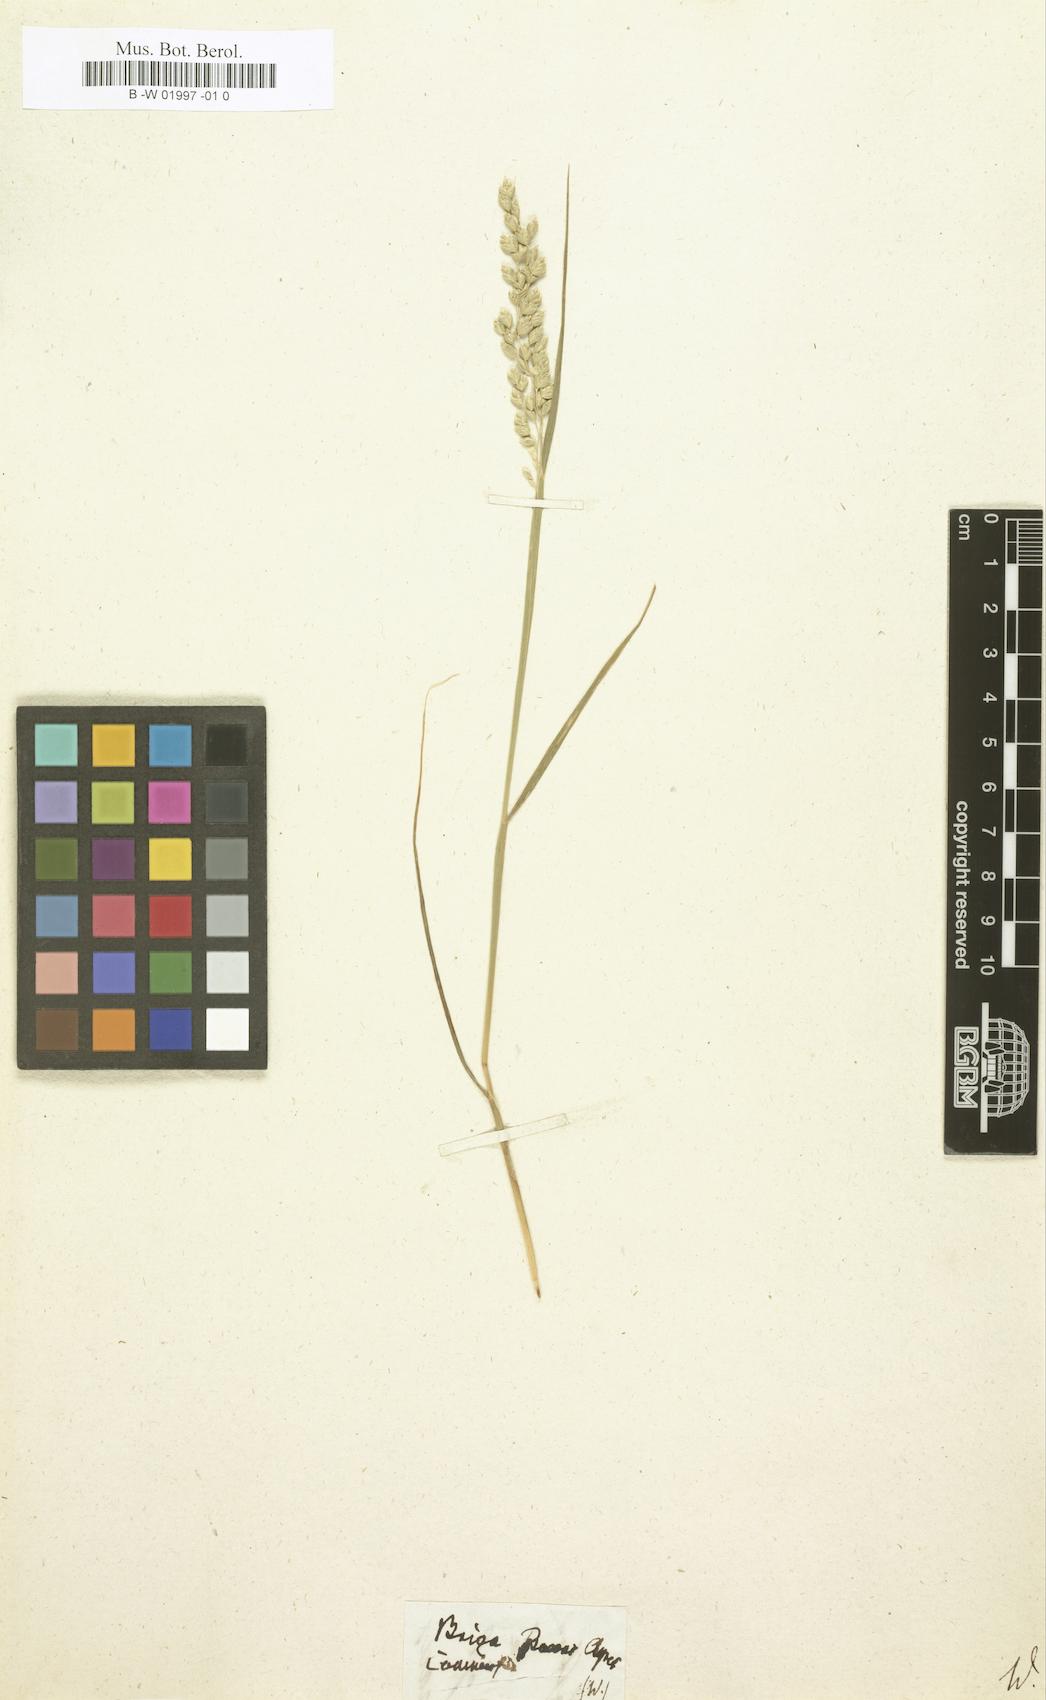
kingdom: Plantae
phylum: Tracheophyta
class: Liliopsida
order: Poales
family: Poaceae
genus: Briza
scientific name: Briza
